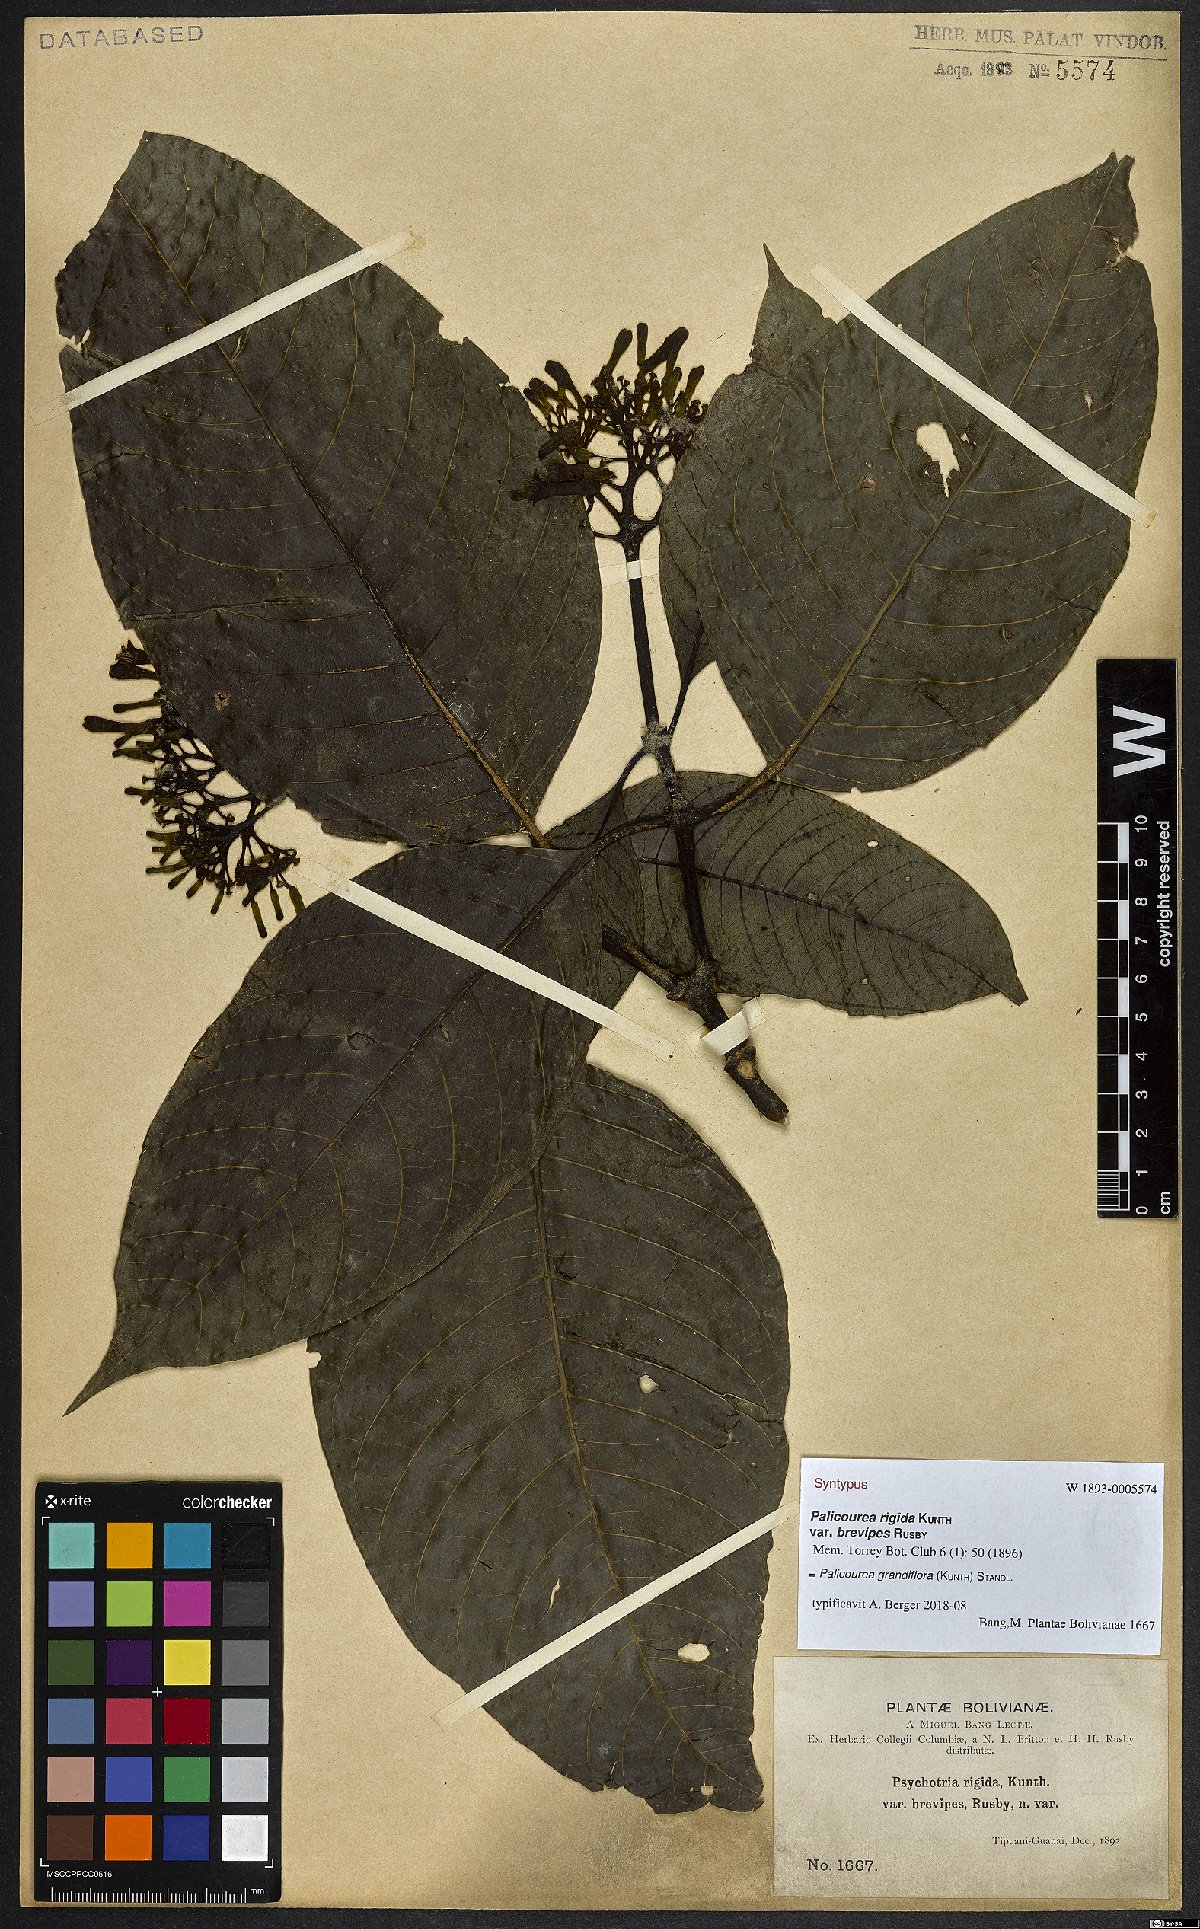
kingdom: Plantae
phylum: Tracheophyta
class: Magnoliopsida
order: Gentianales
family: Rubiaceae
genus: Palicourea
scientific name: Palicourea grandiflora
